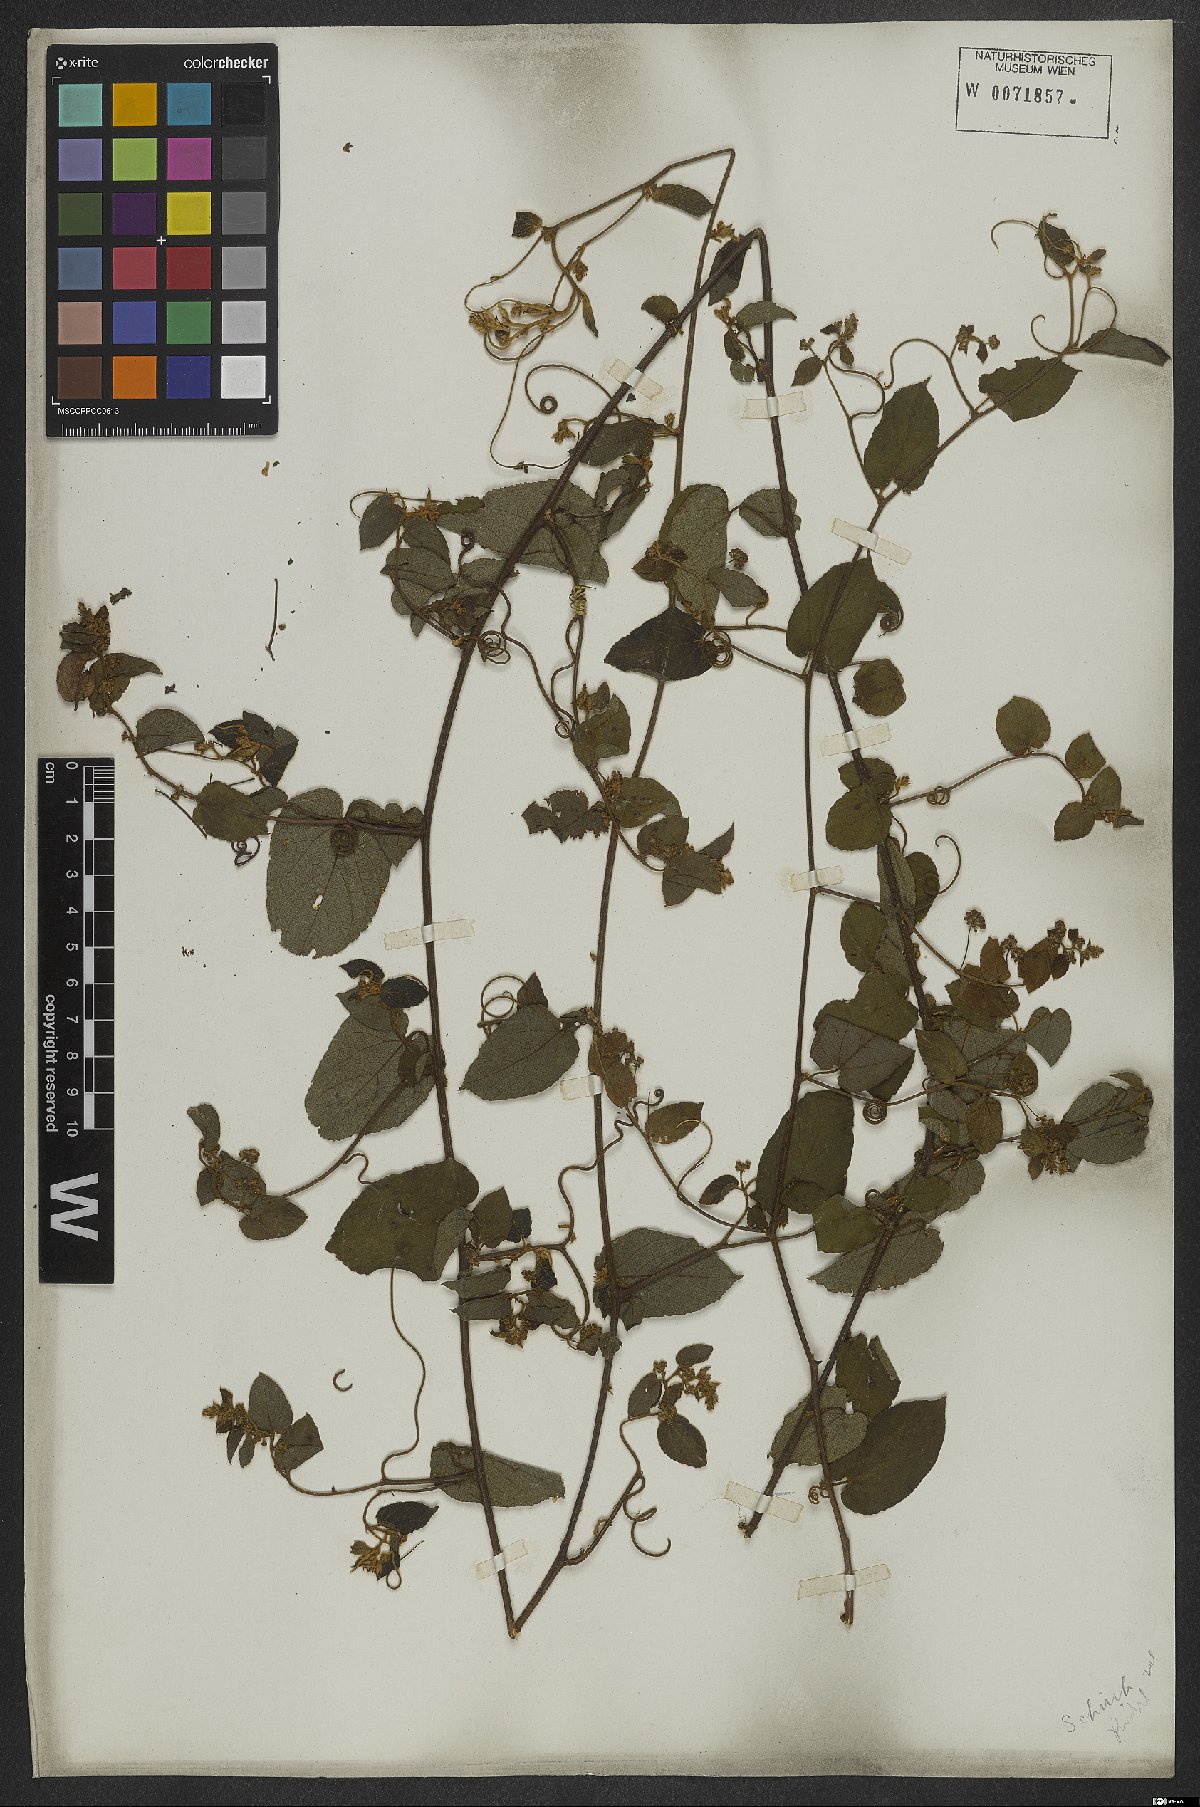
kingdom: Plantae
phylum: Tracheophyta
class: Magnoliopsida
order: Rosales
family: Rhamnaceae
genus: Reissekia
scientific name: Reissekia smilacina
